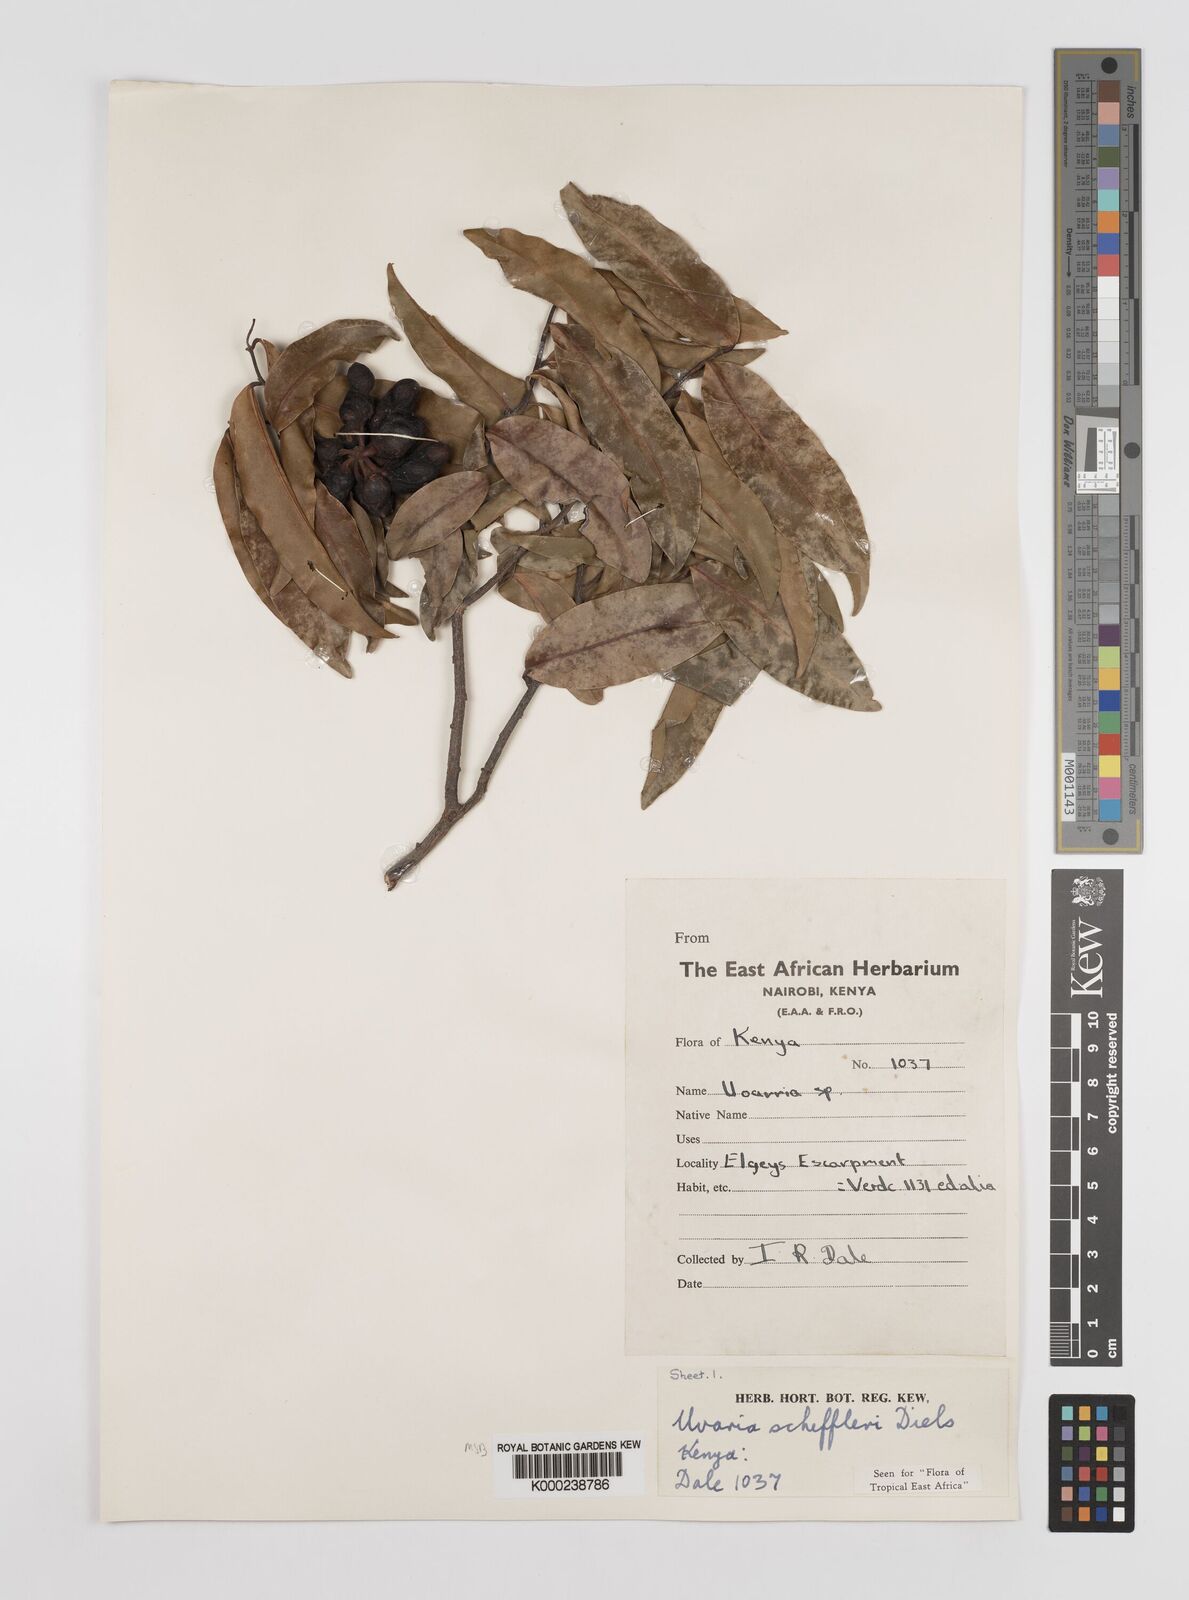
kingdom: Plantae
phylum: Tracheophyta
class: Magnoliopsida
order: Magnoliales
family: Annonaceae
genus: Uvaria
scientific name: Uvaria scheffleri
